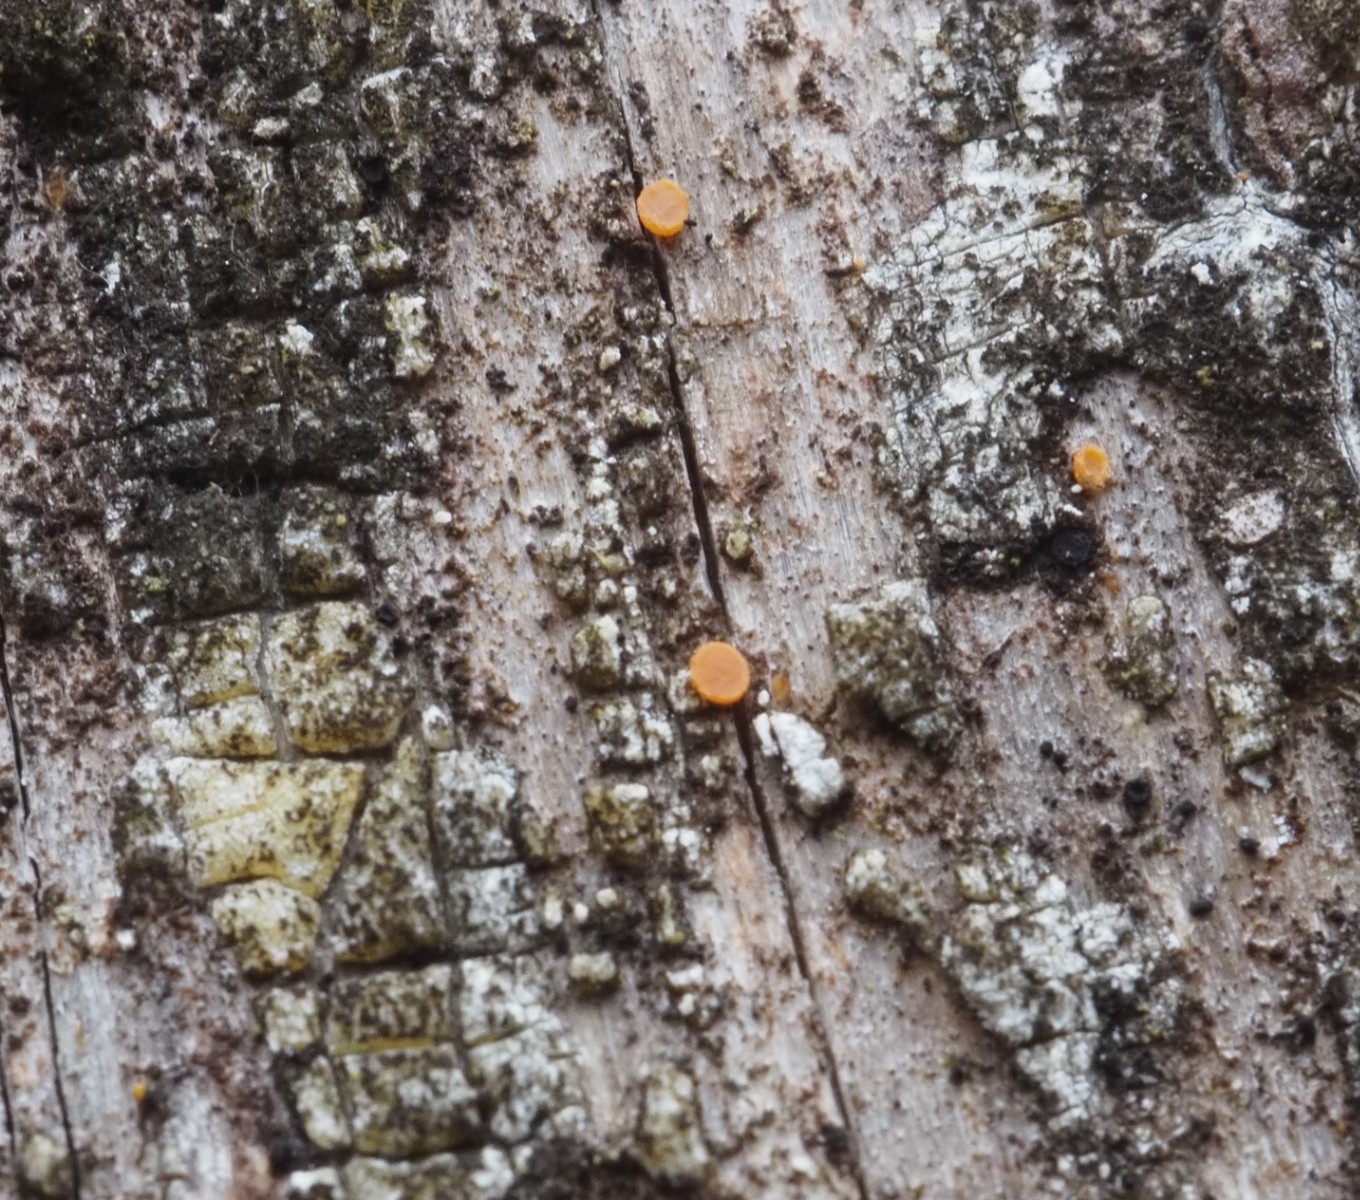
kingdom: Fungi
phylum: Ascomycota
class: Sareomycetes
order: Sareales
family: Sareaceae
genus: Sarea
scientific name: Sarea resinae
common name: orangegul harpiksskive
